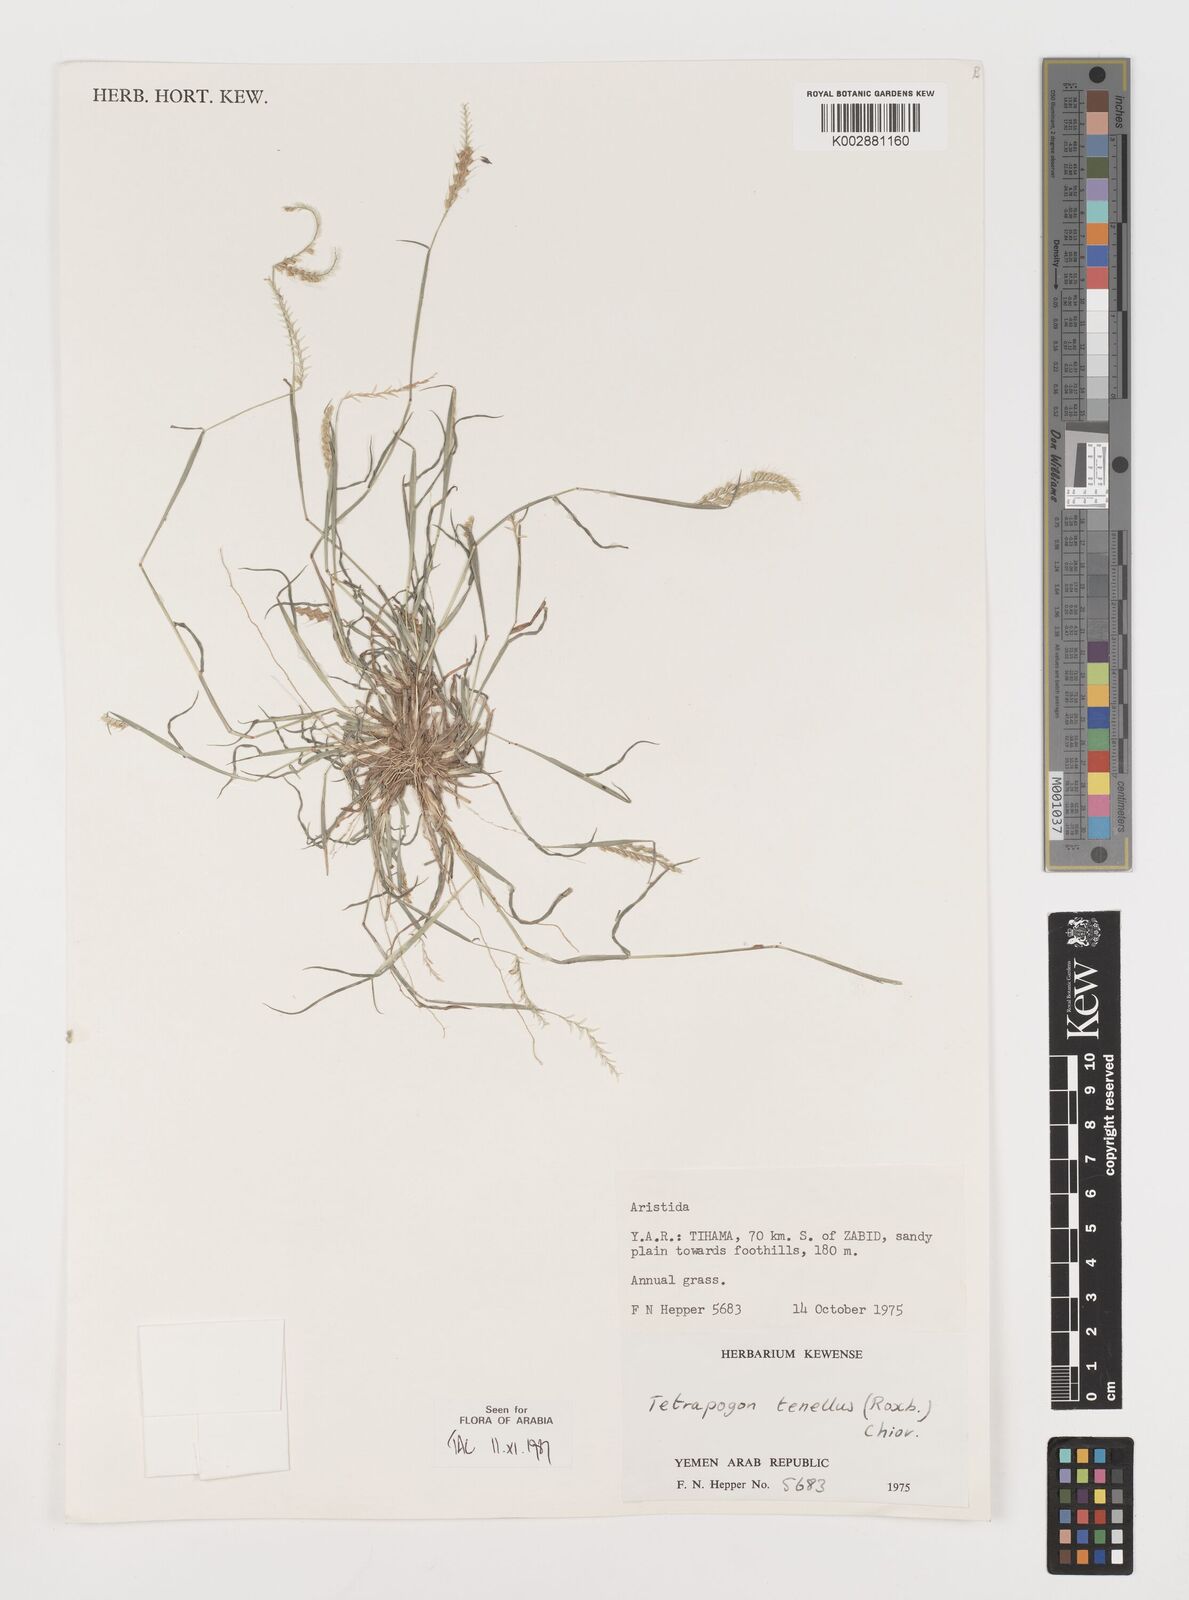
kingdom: Plantae
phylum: Tracheophyta
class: Liliopsida
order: Poales
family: Poaceae
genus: Tetrapogon
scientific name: Tetrapogon tenellus
